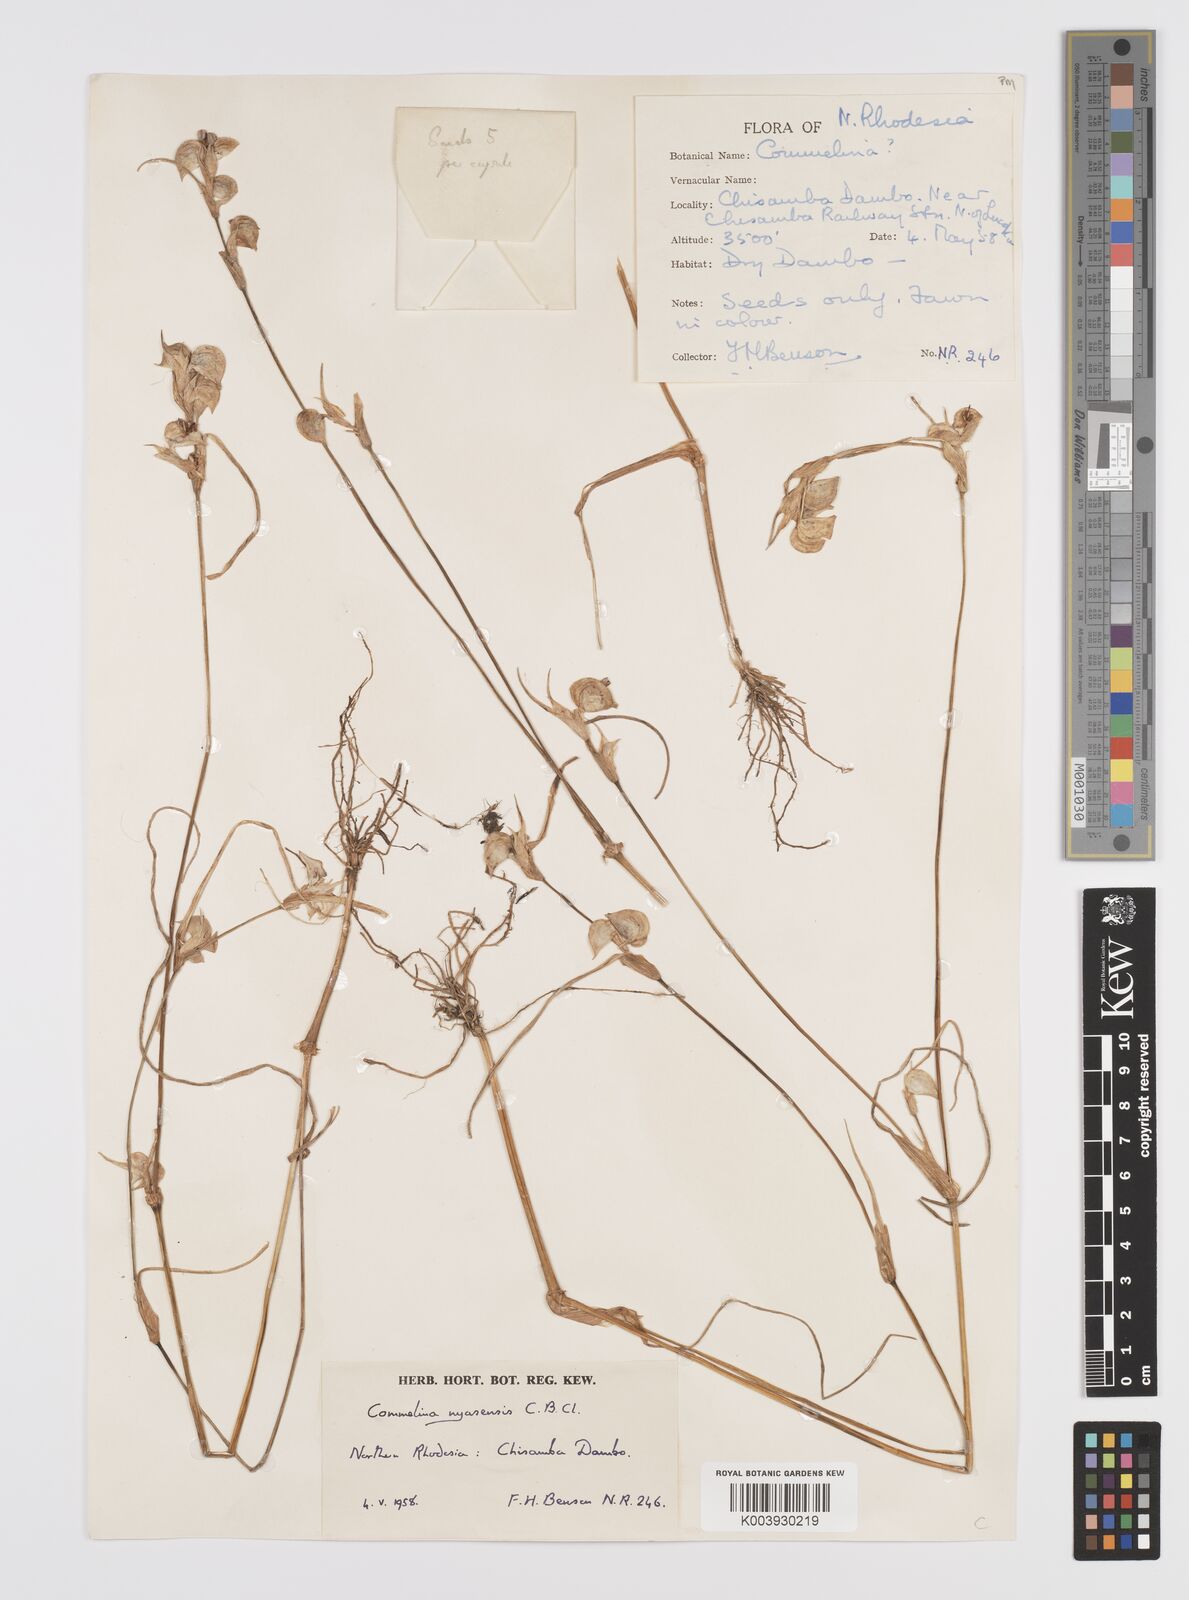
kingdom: Plantae
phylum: Tracheophyta
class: Liliopsida
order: Commelinales
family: Commelinaceae
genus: Commelina
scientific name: Commelina nyasensis
